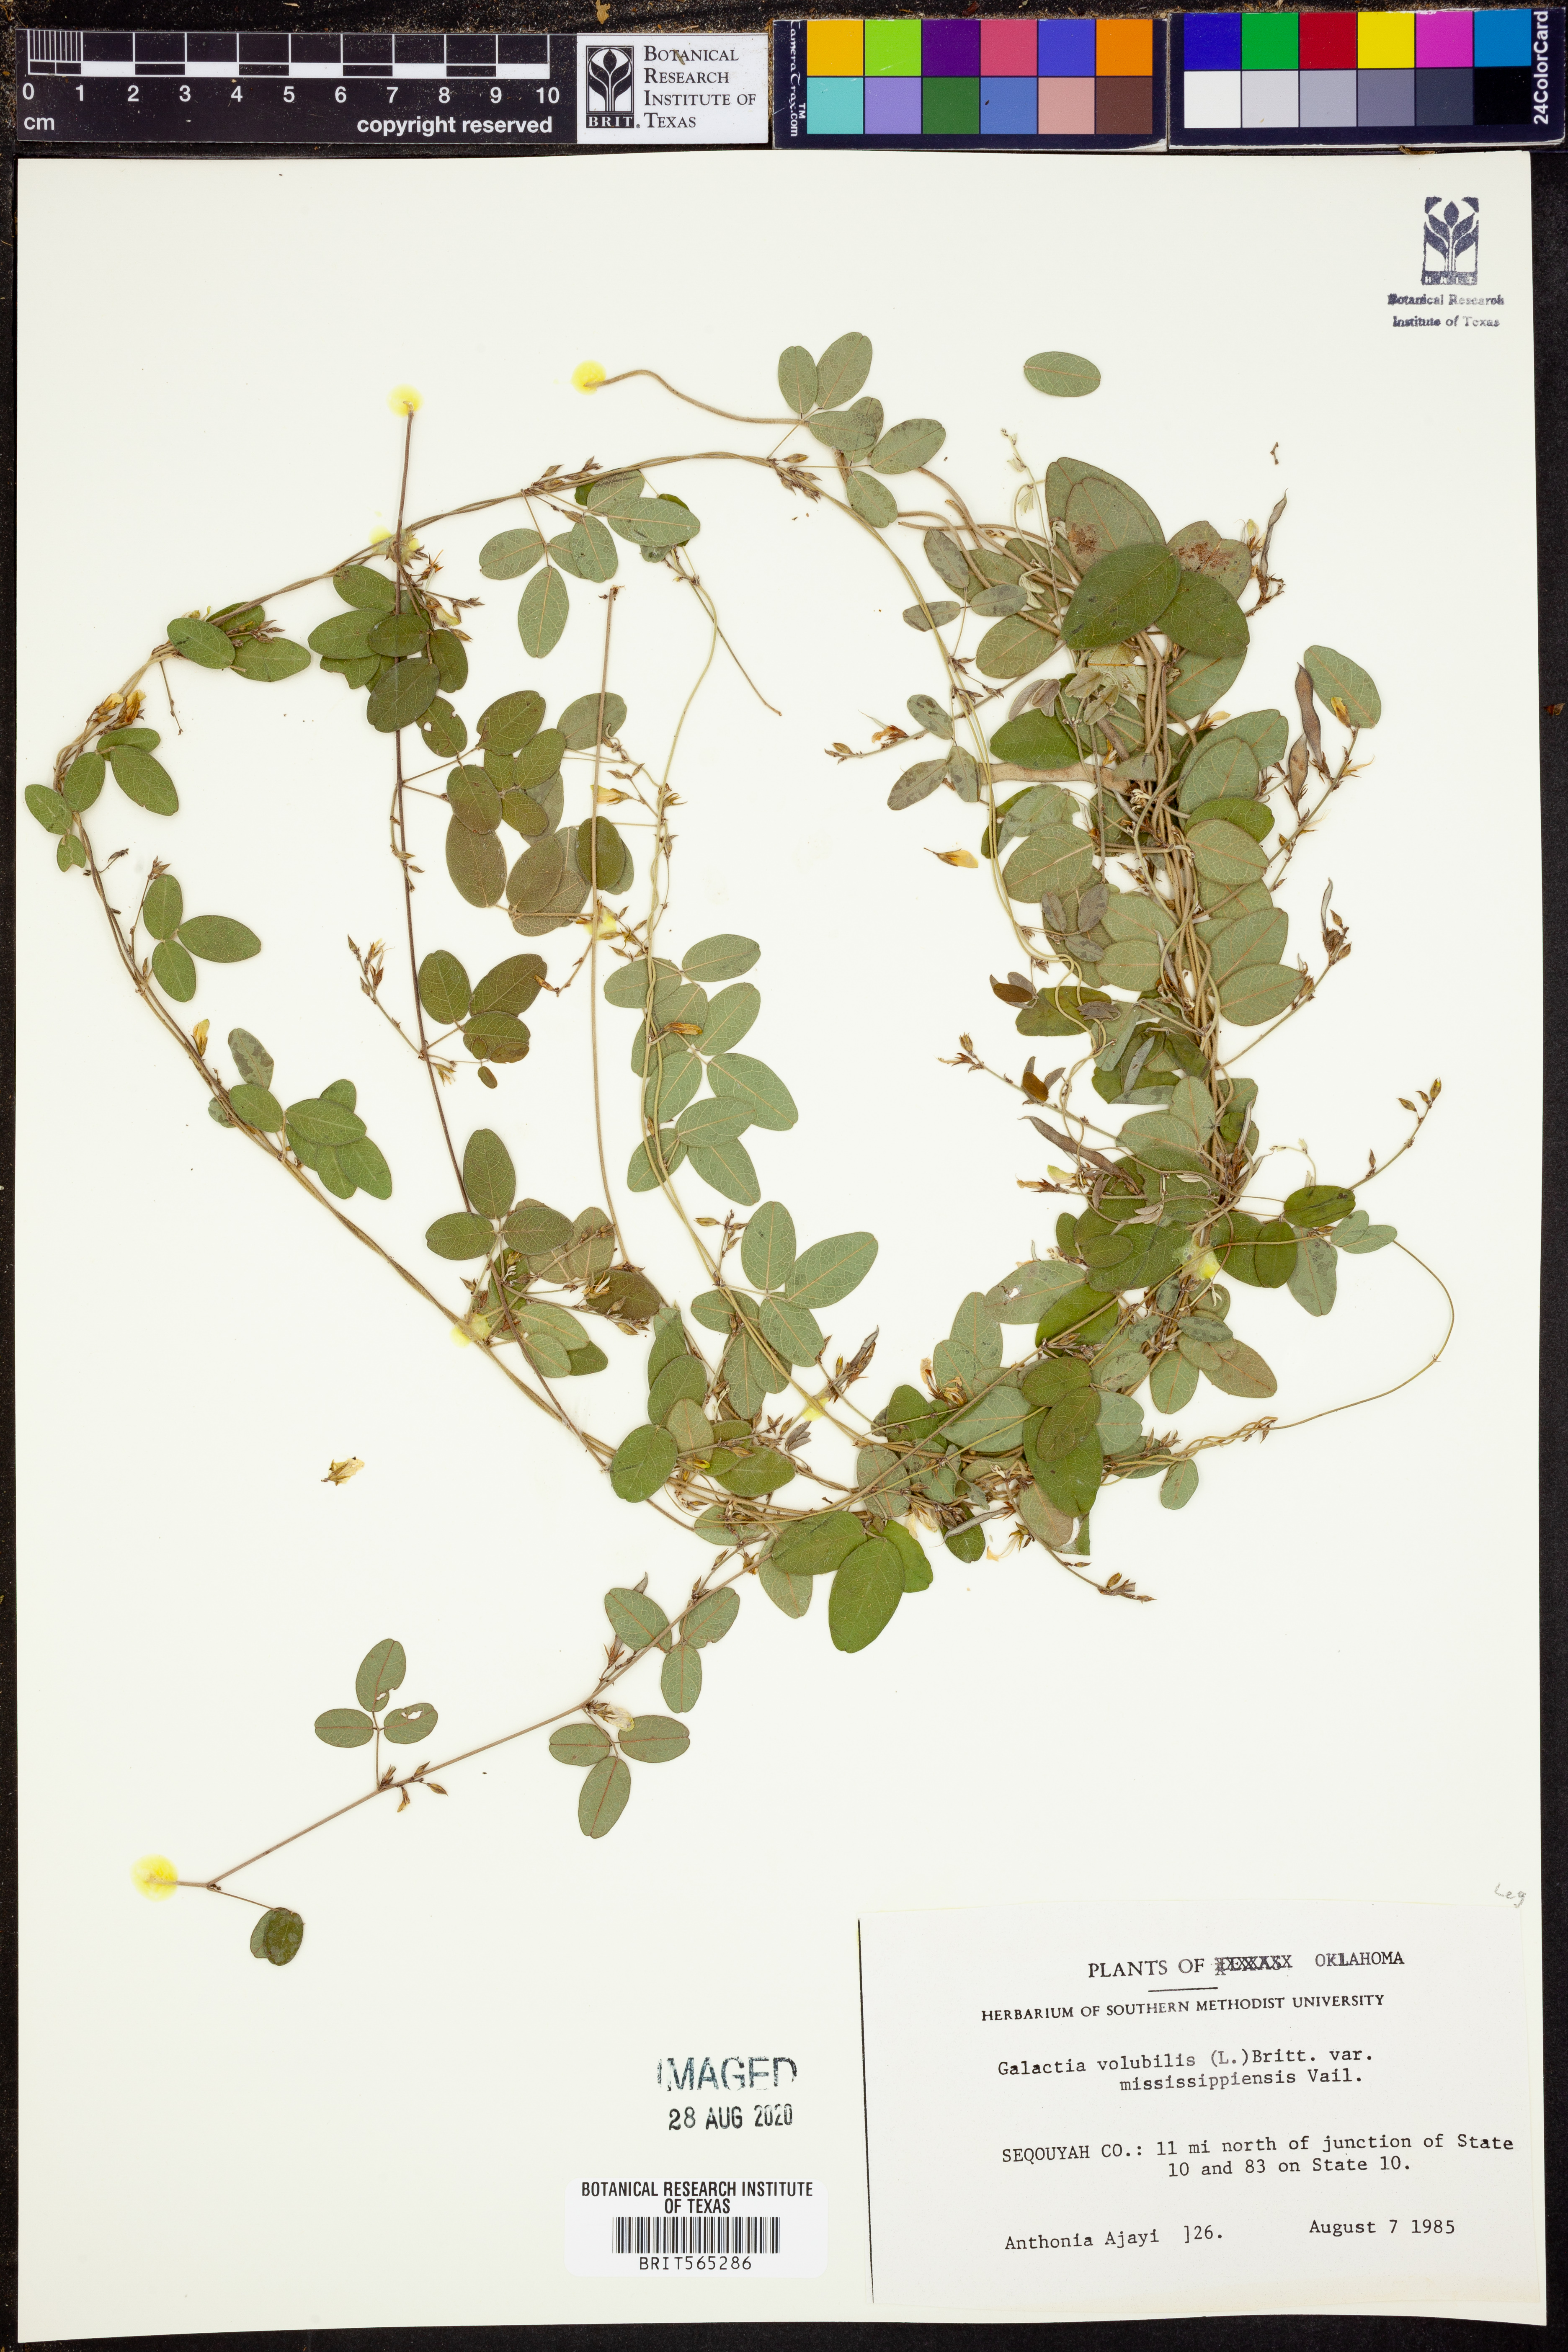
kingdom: Plantae
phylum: Tracheophyta
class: Magnoliopsida
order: Fabales
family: Fabaceae
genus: Galactia
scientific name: Galactia volubilis
